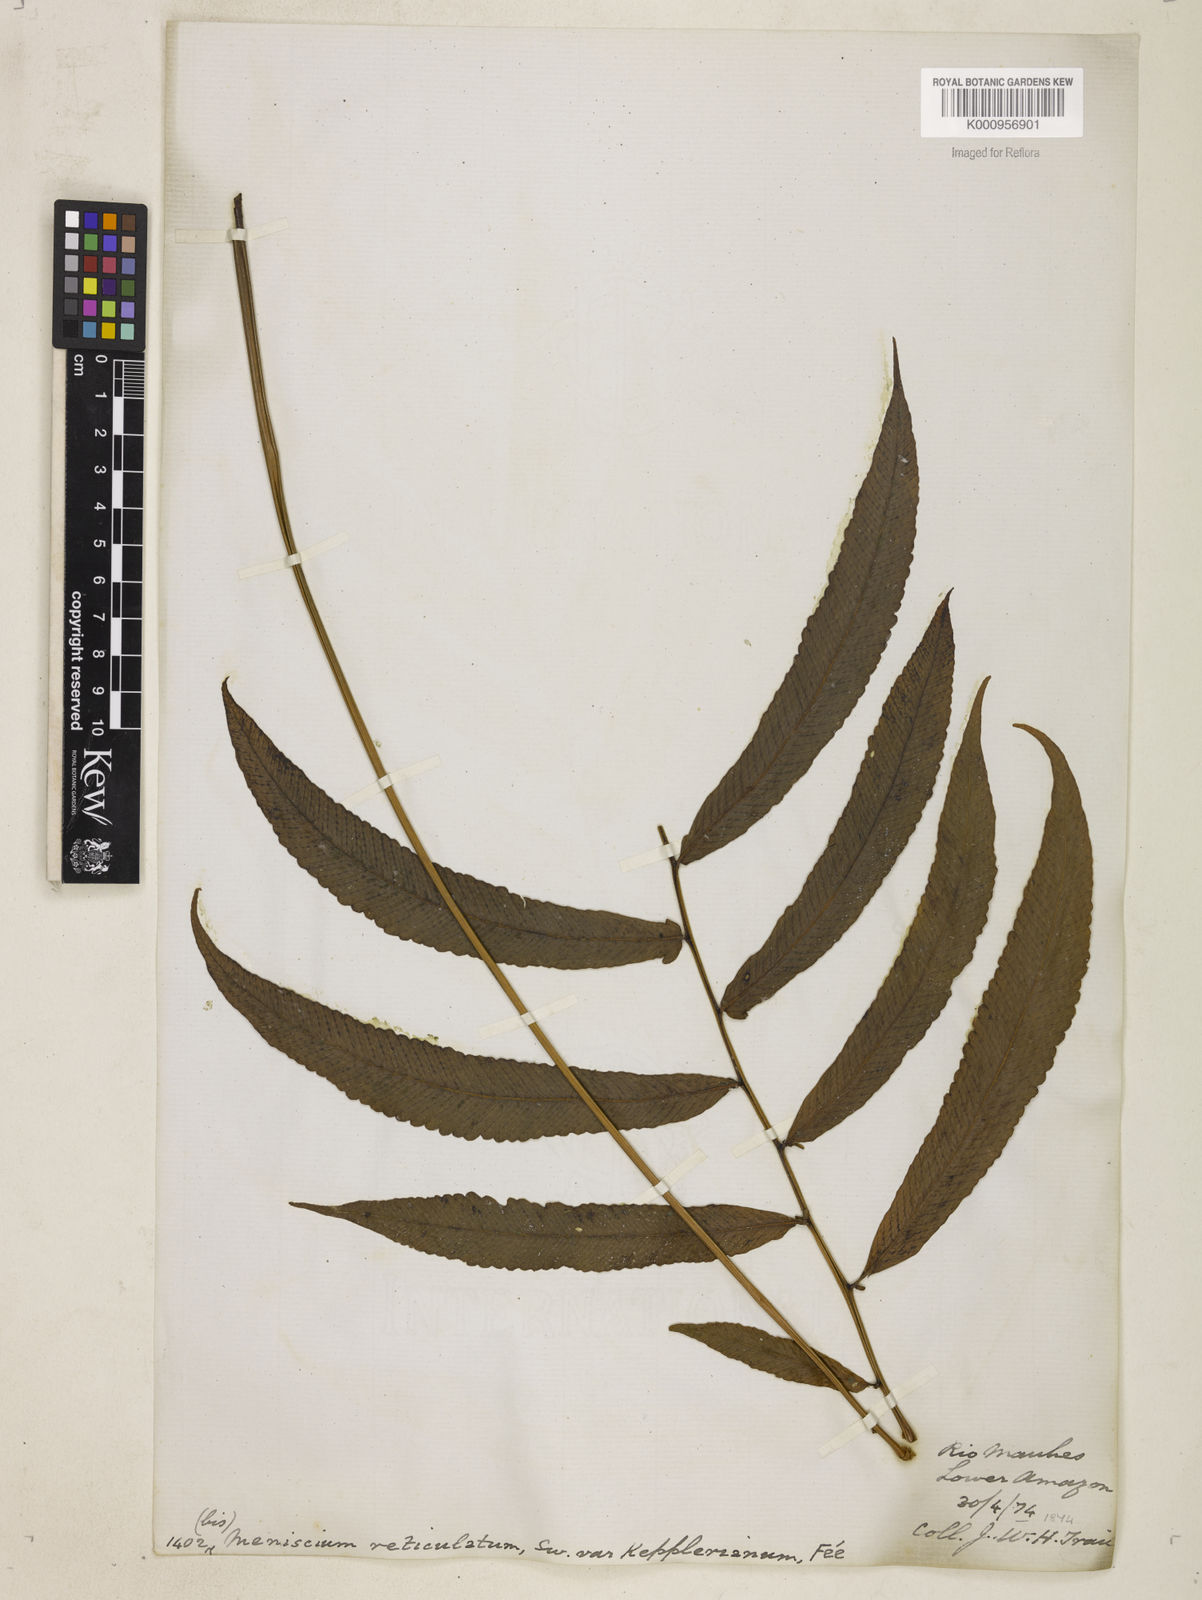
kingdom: Plantae
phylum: Tracheophyta
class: Polypodiopsida
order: Polypodiales
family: Thelypteridaceae
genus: Meniscium
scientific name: Meniscium
